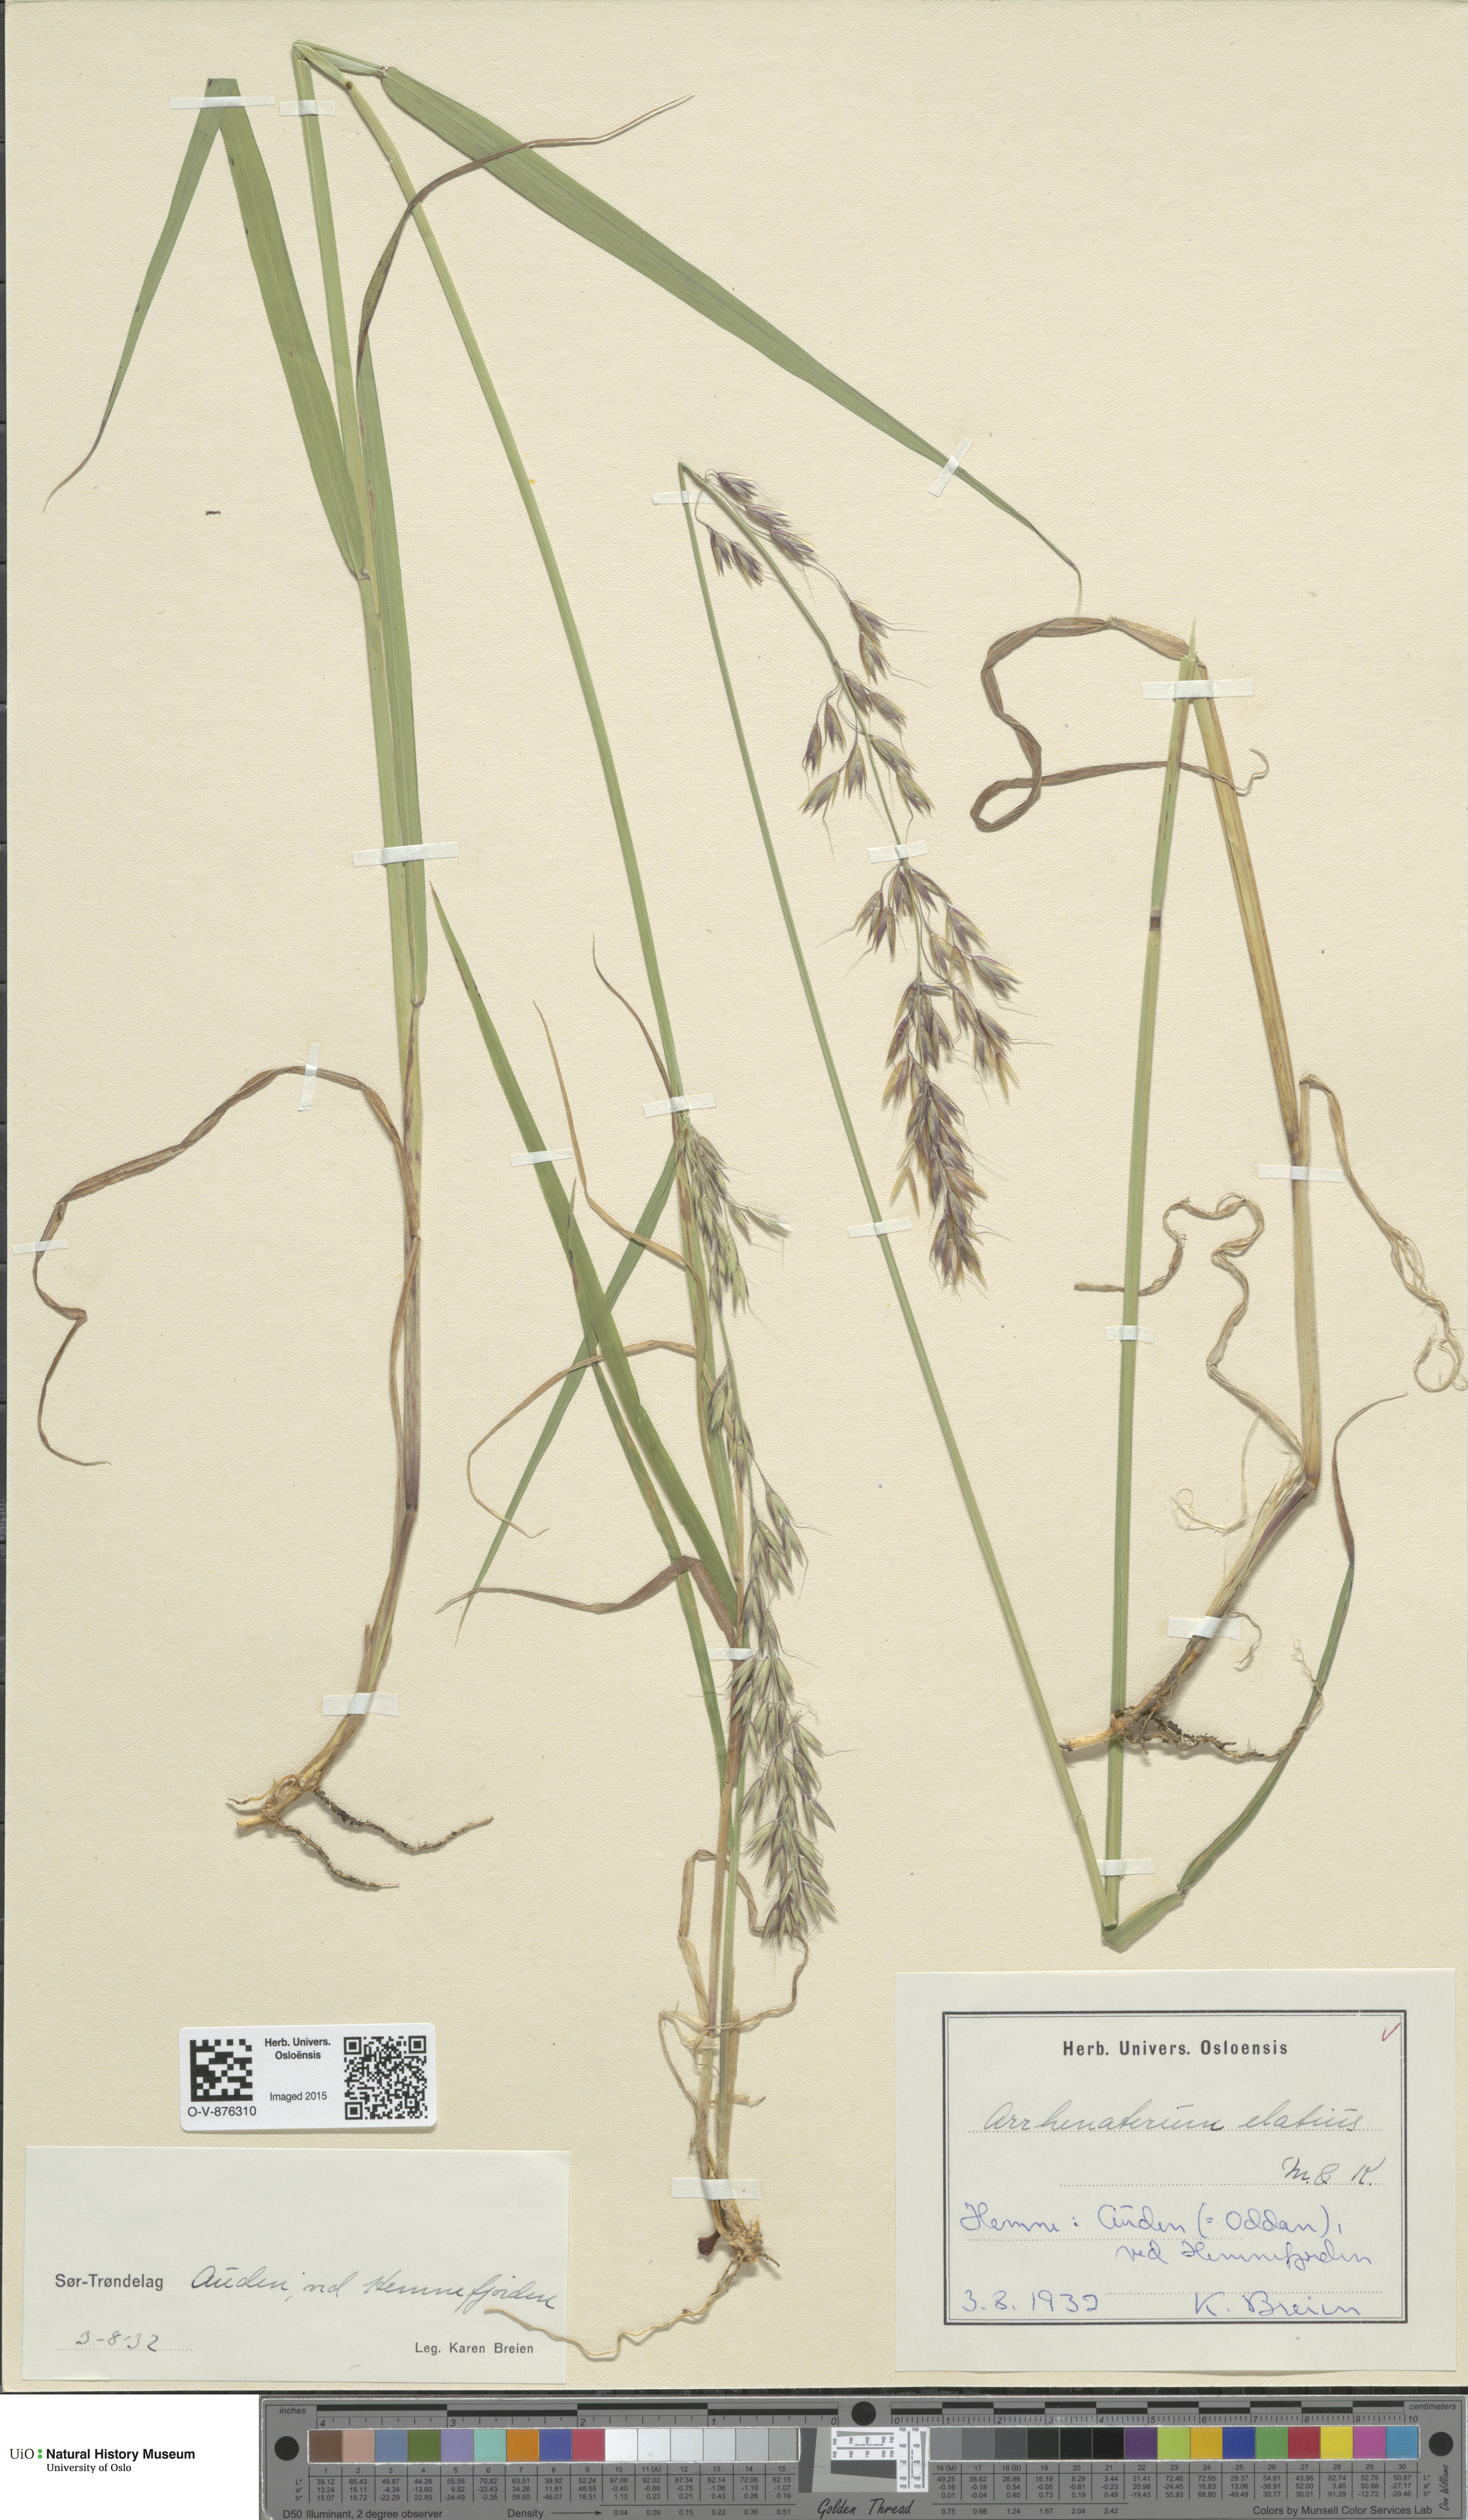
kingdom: Plantae
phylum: Tracheophyta
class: Liliopsida
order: Poales
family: Poaceae
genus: Arrhenatherum
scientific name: Arrhenatherum elatius
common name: Tall oatgrass
